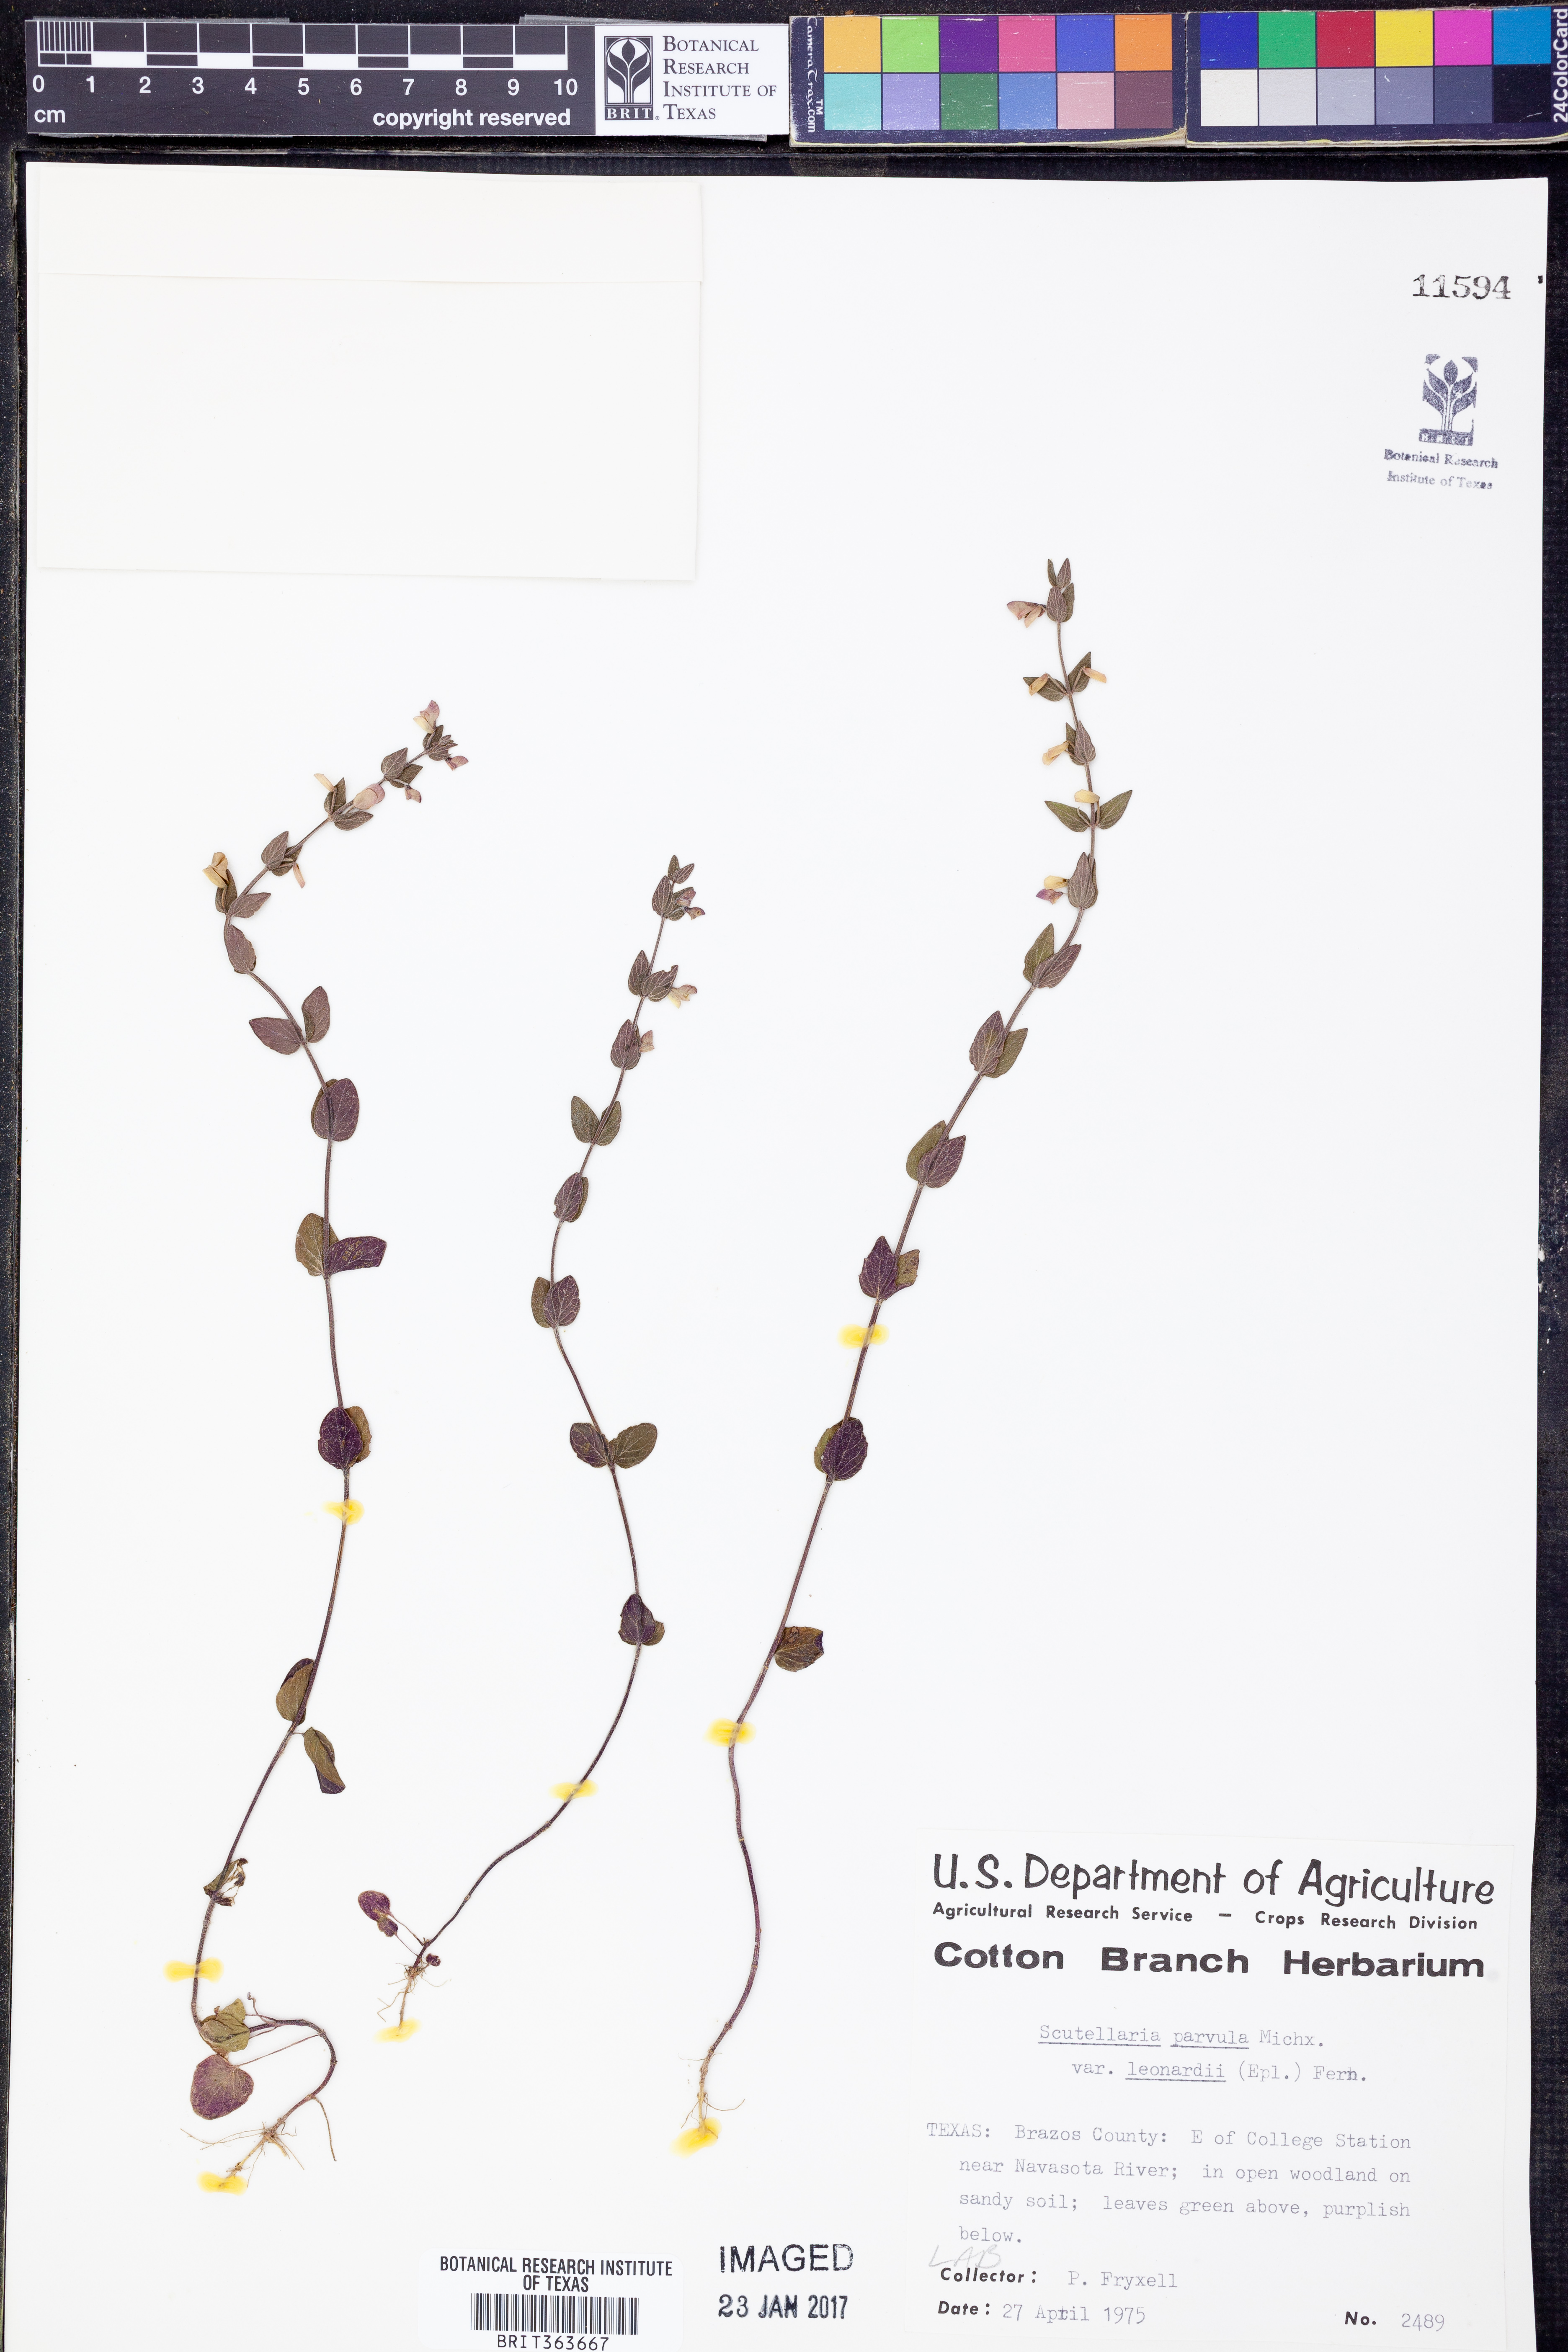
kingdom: Plantae
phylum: Tracheophyta
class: Magnoliopsida
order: Lamiales
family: Lamiaceae
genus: Scutellaria
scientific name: Scutellaria parvula
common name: Little scullcap
